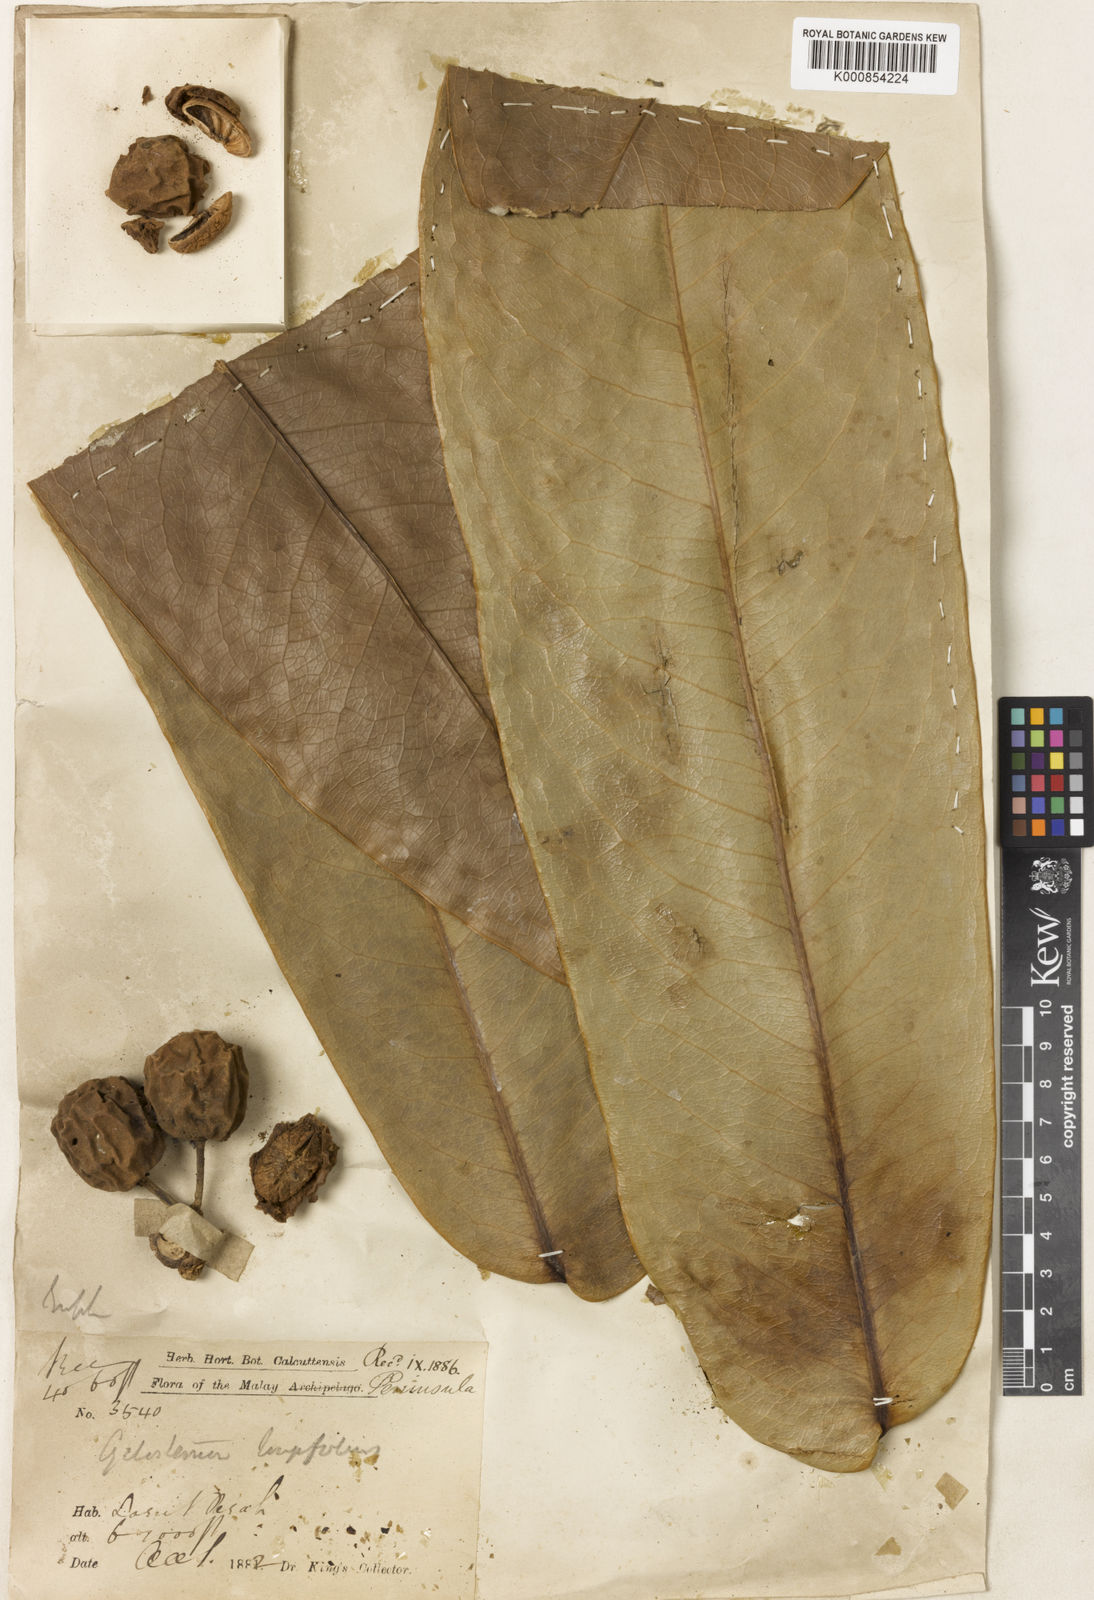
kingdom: Plantae
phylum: Tracheophyta
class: Magnoliopsida
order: Malpighiales
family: Putranjivaceae
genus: Drypetes
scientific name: Drypetes pendula
